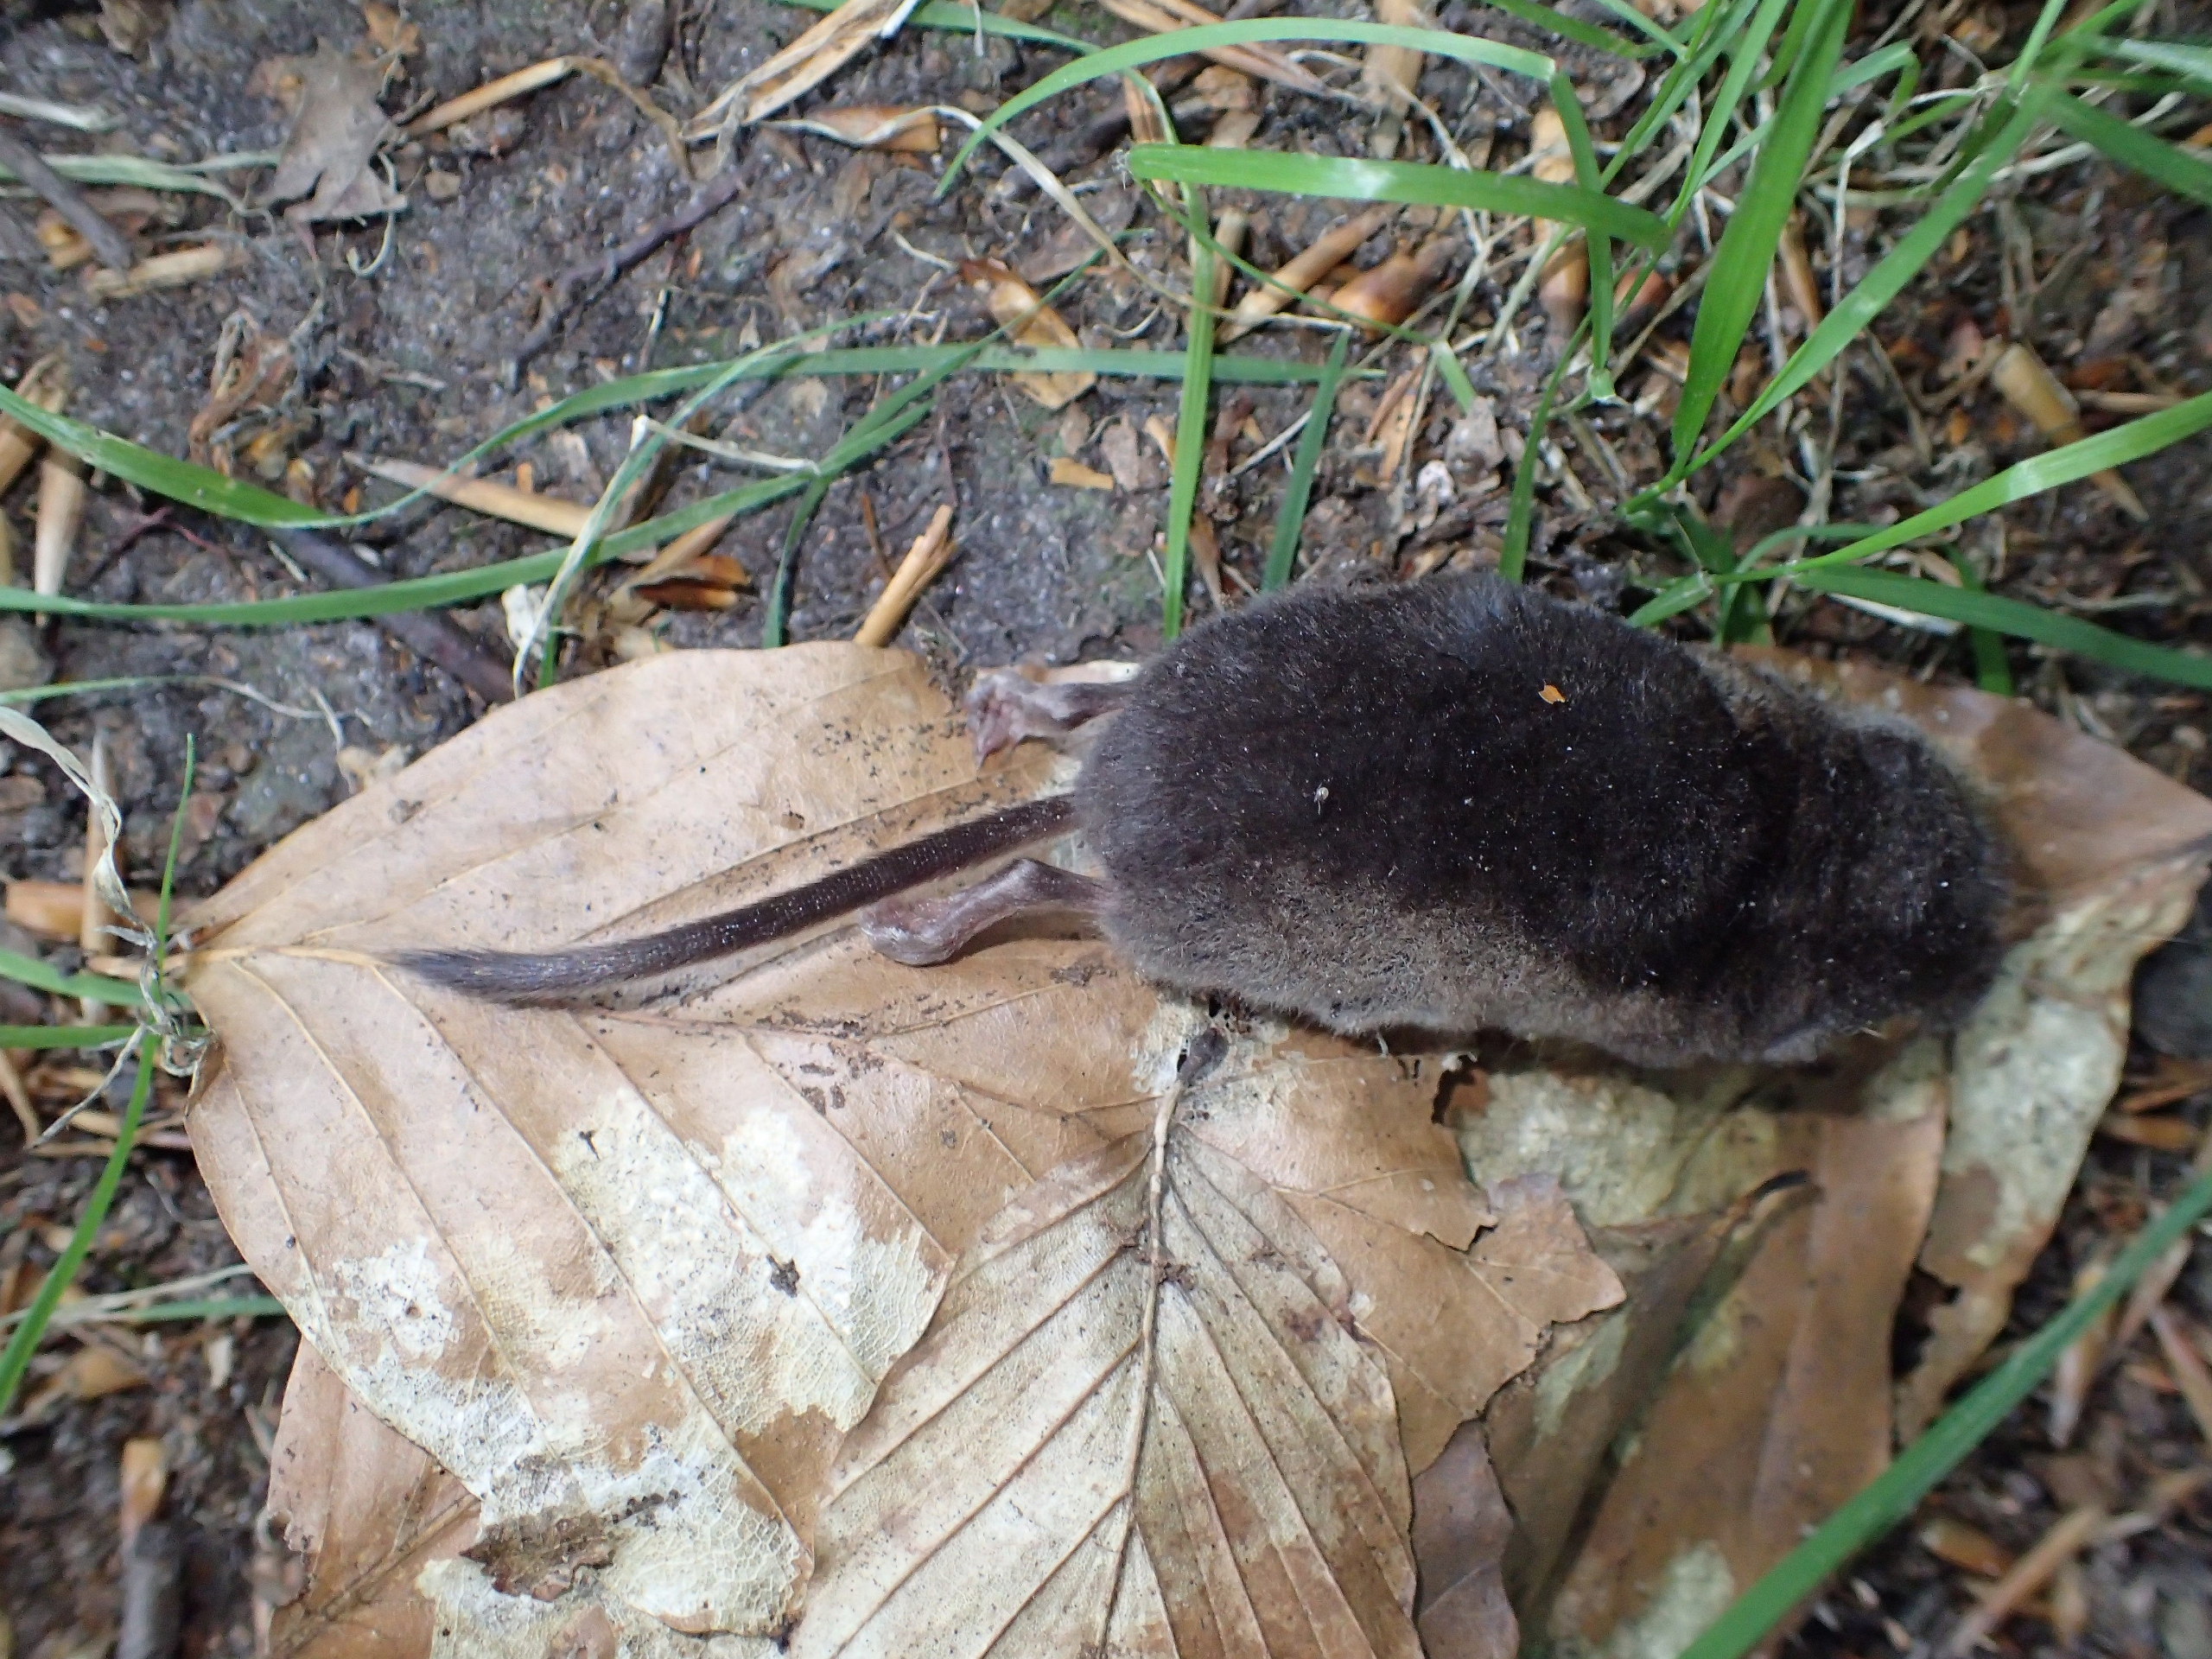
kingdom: Animalia
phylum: Chordata
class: Mammalia
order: Soricomorpha
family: Soricidae
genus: Sorex
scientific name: Sorex araneus
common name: Almindelig spidsmus
